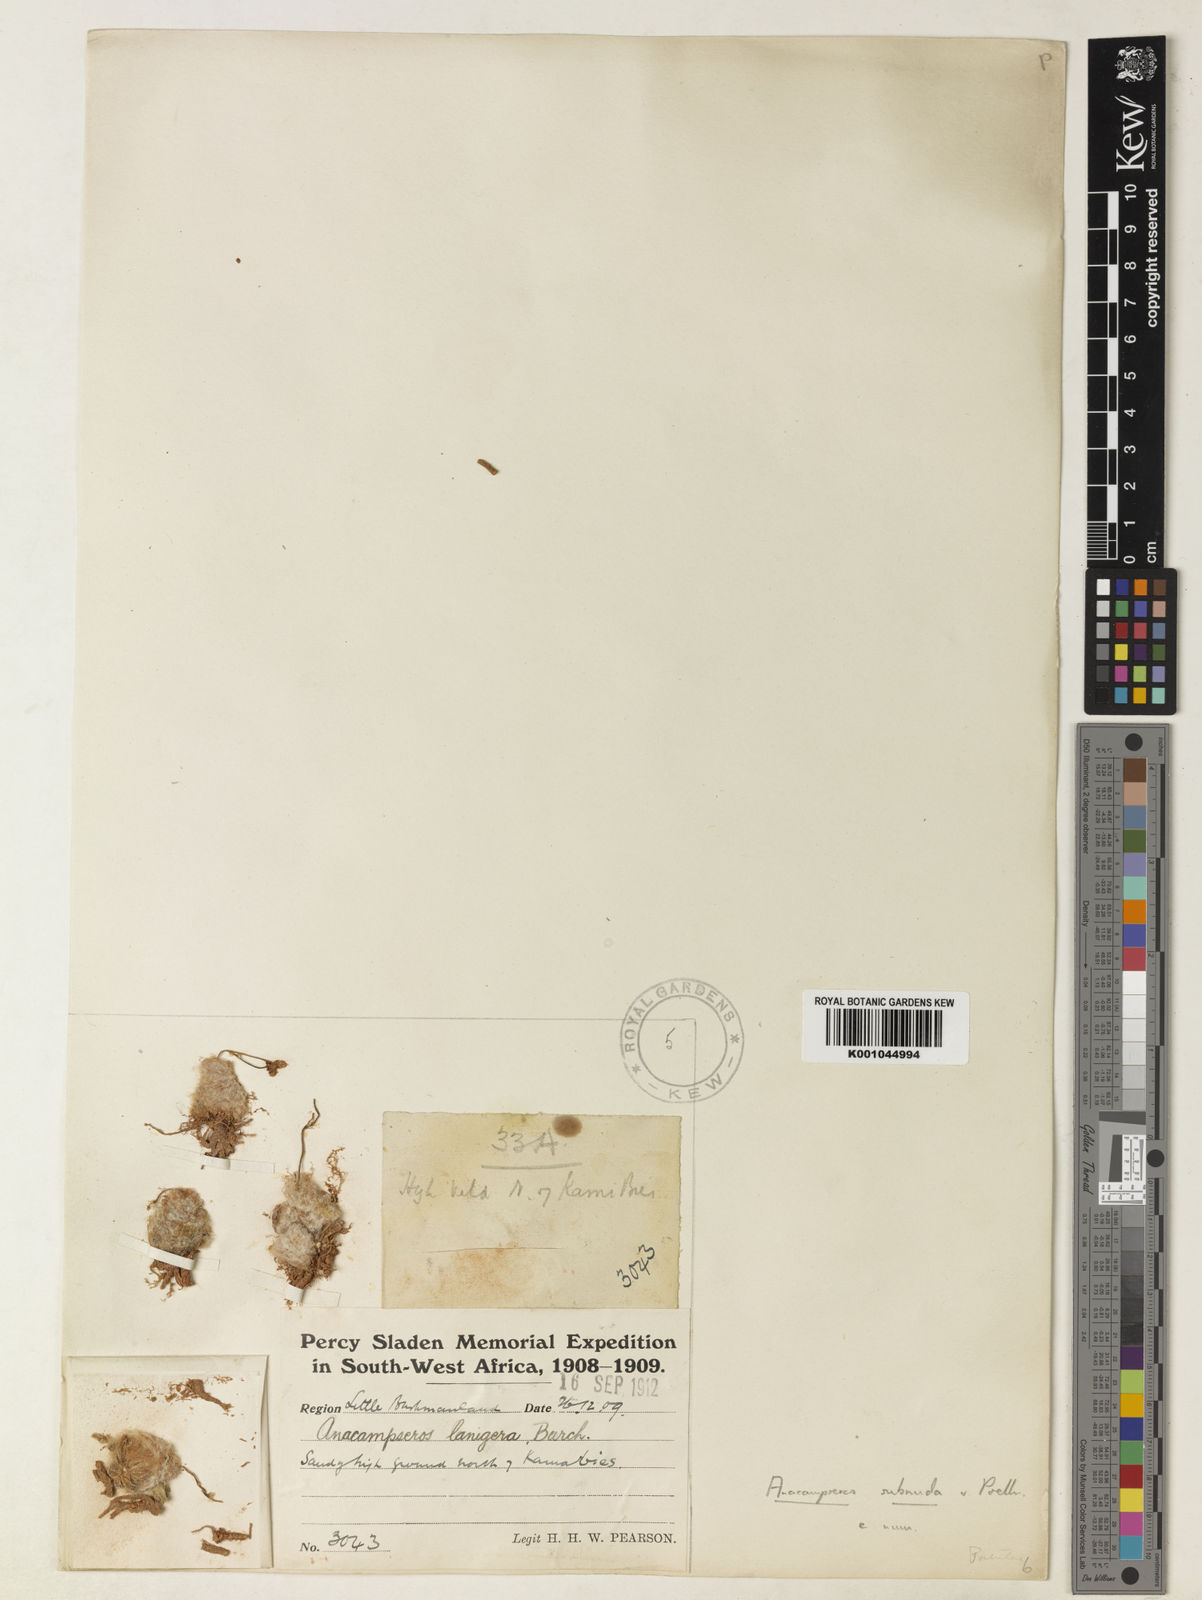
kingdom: Plantae
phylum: Tracheophyta
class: Magnoliopsida
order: Caryophyllales
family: Anacampserotaceae
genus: Anacampseros
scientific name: Anacampseros
